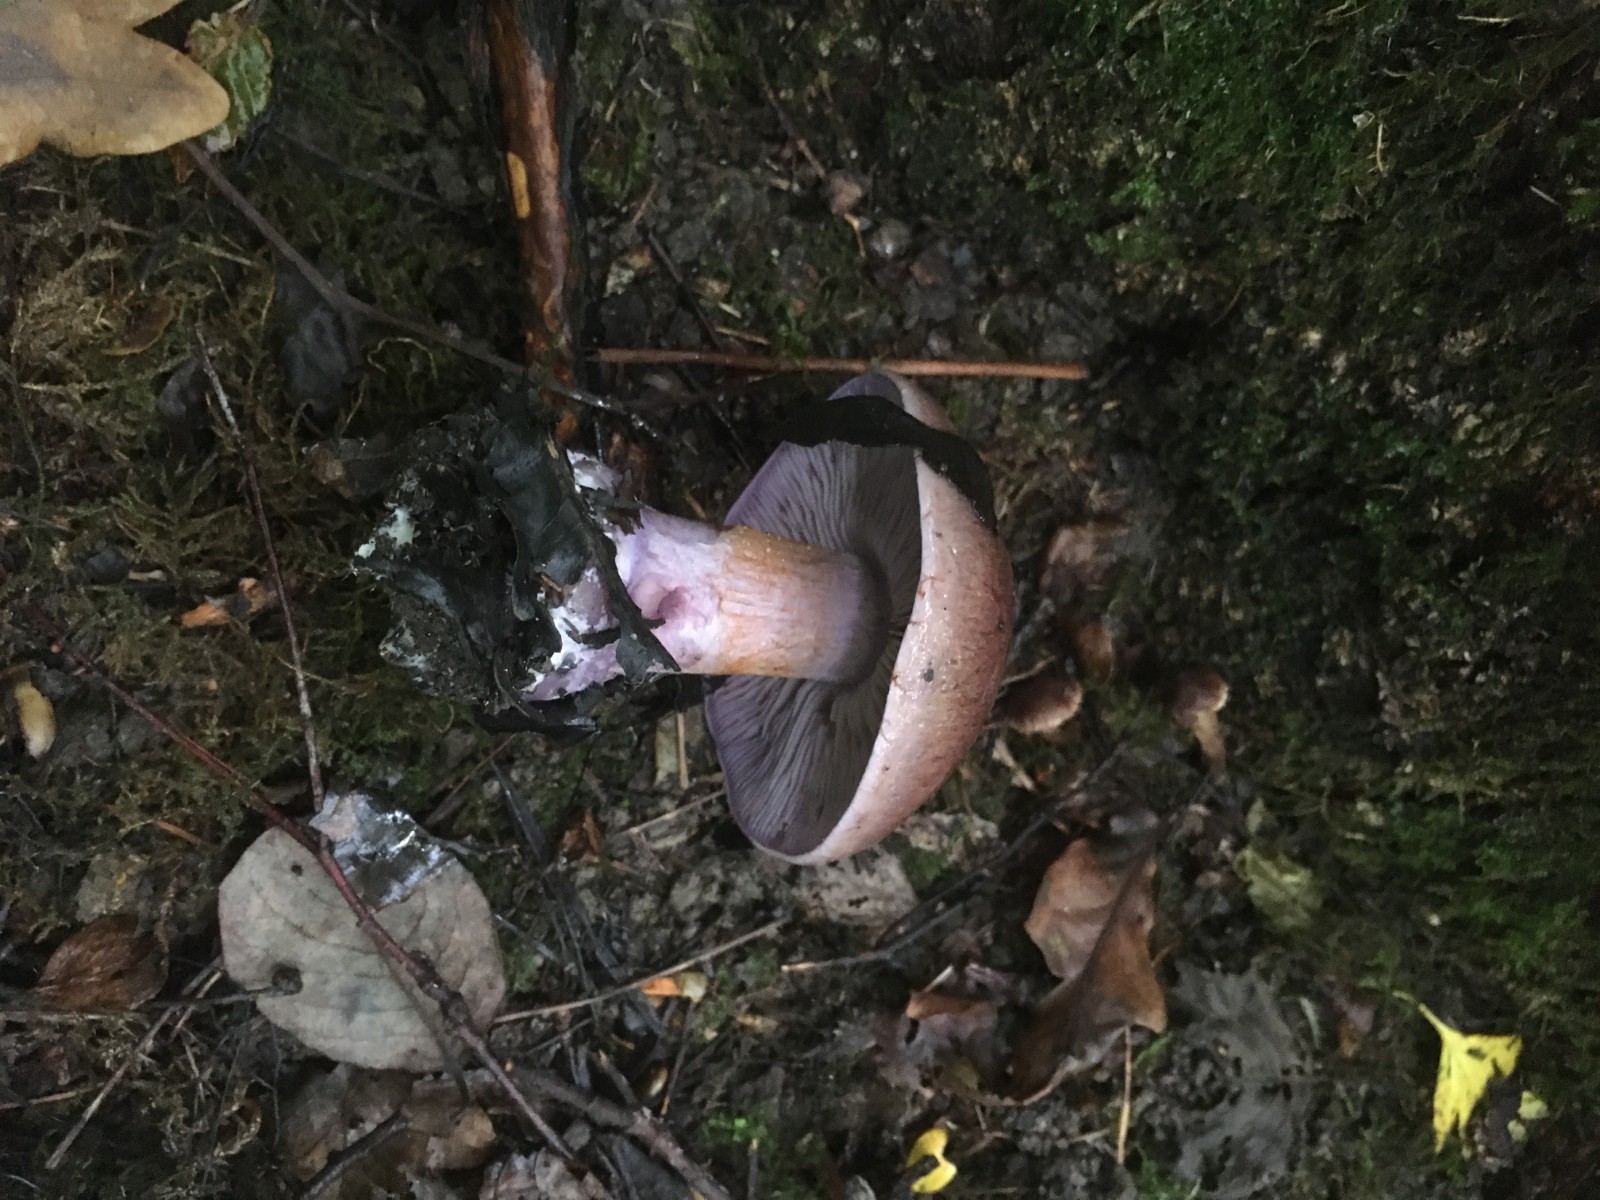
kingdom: Fungi
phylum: Basidiomycota
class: Agaricomycetes
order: Agaricales
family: Cortinariaceae
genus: Thaxterogaster
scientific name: Thaxterogaster subpurpurascens
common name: mørkblånende slørhat
